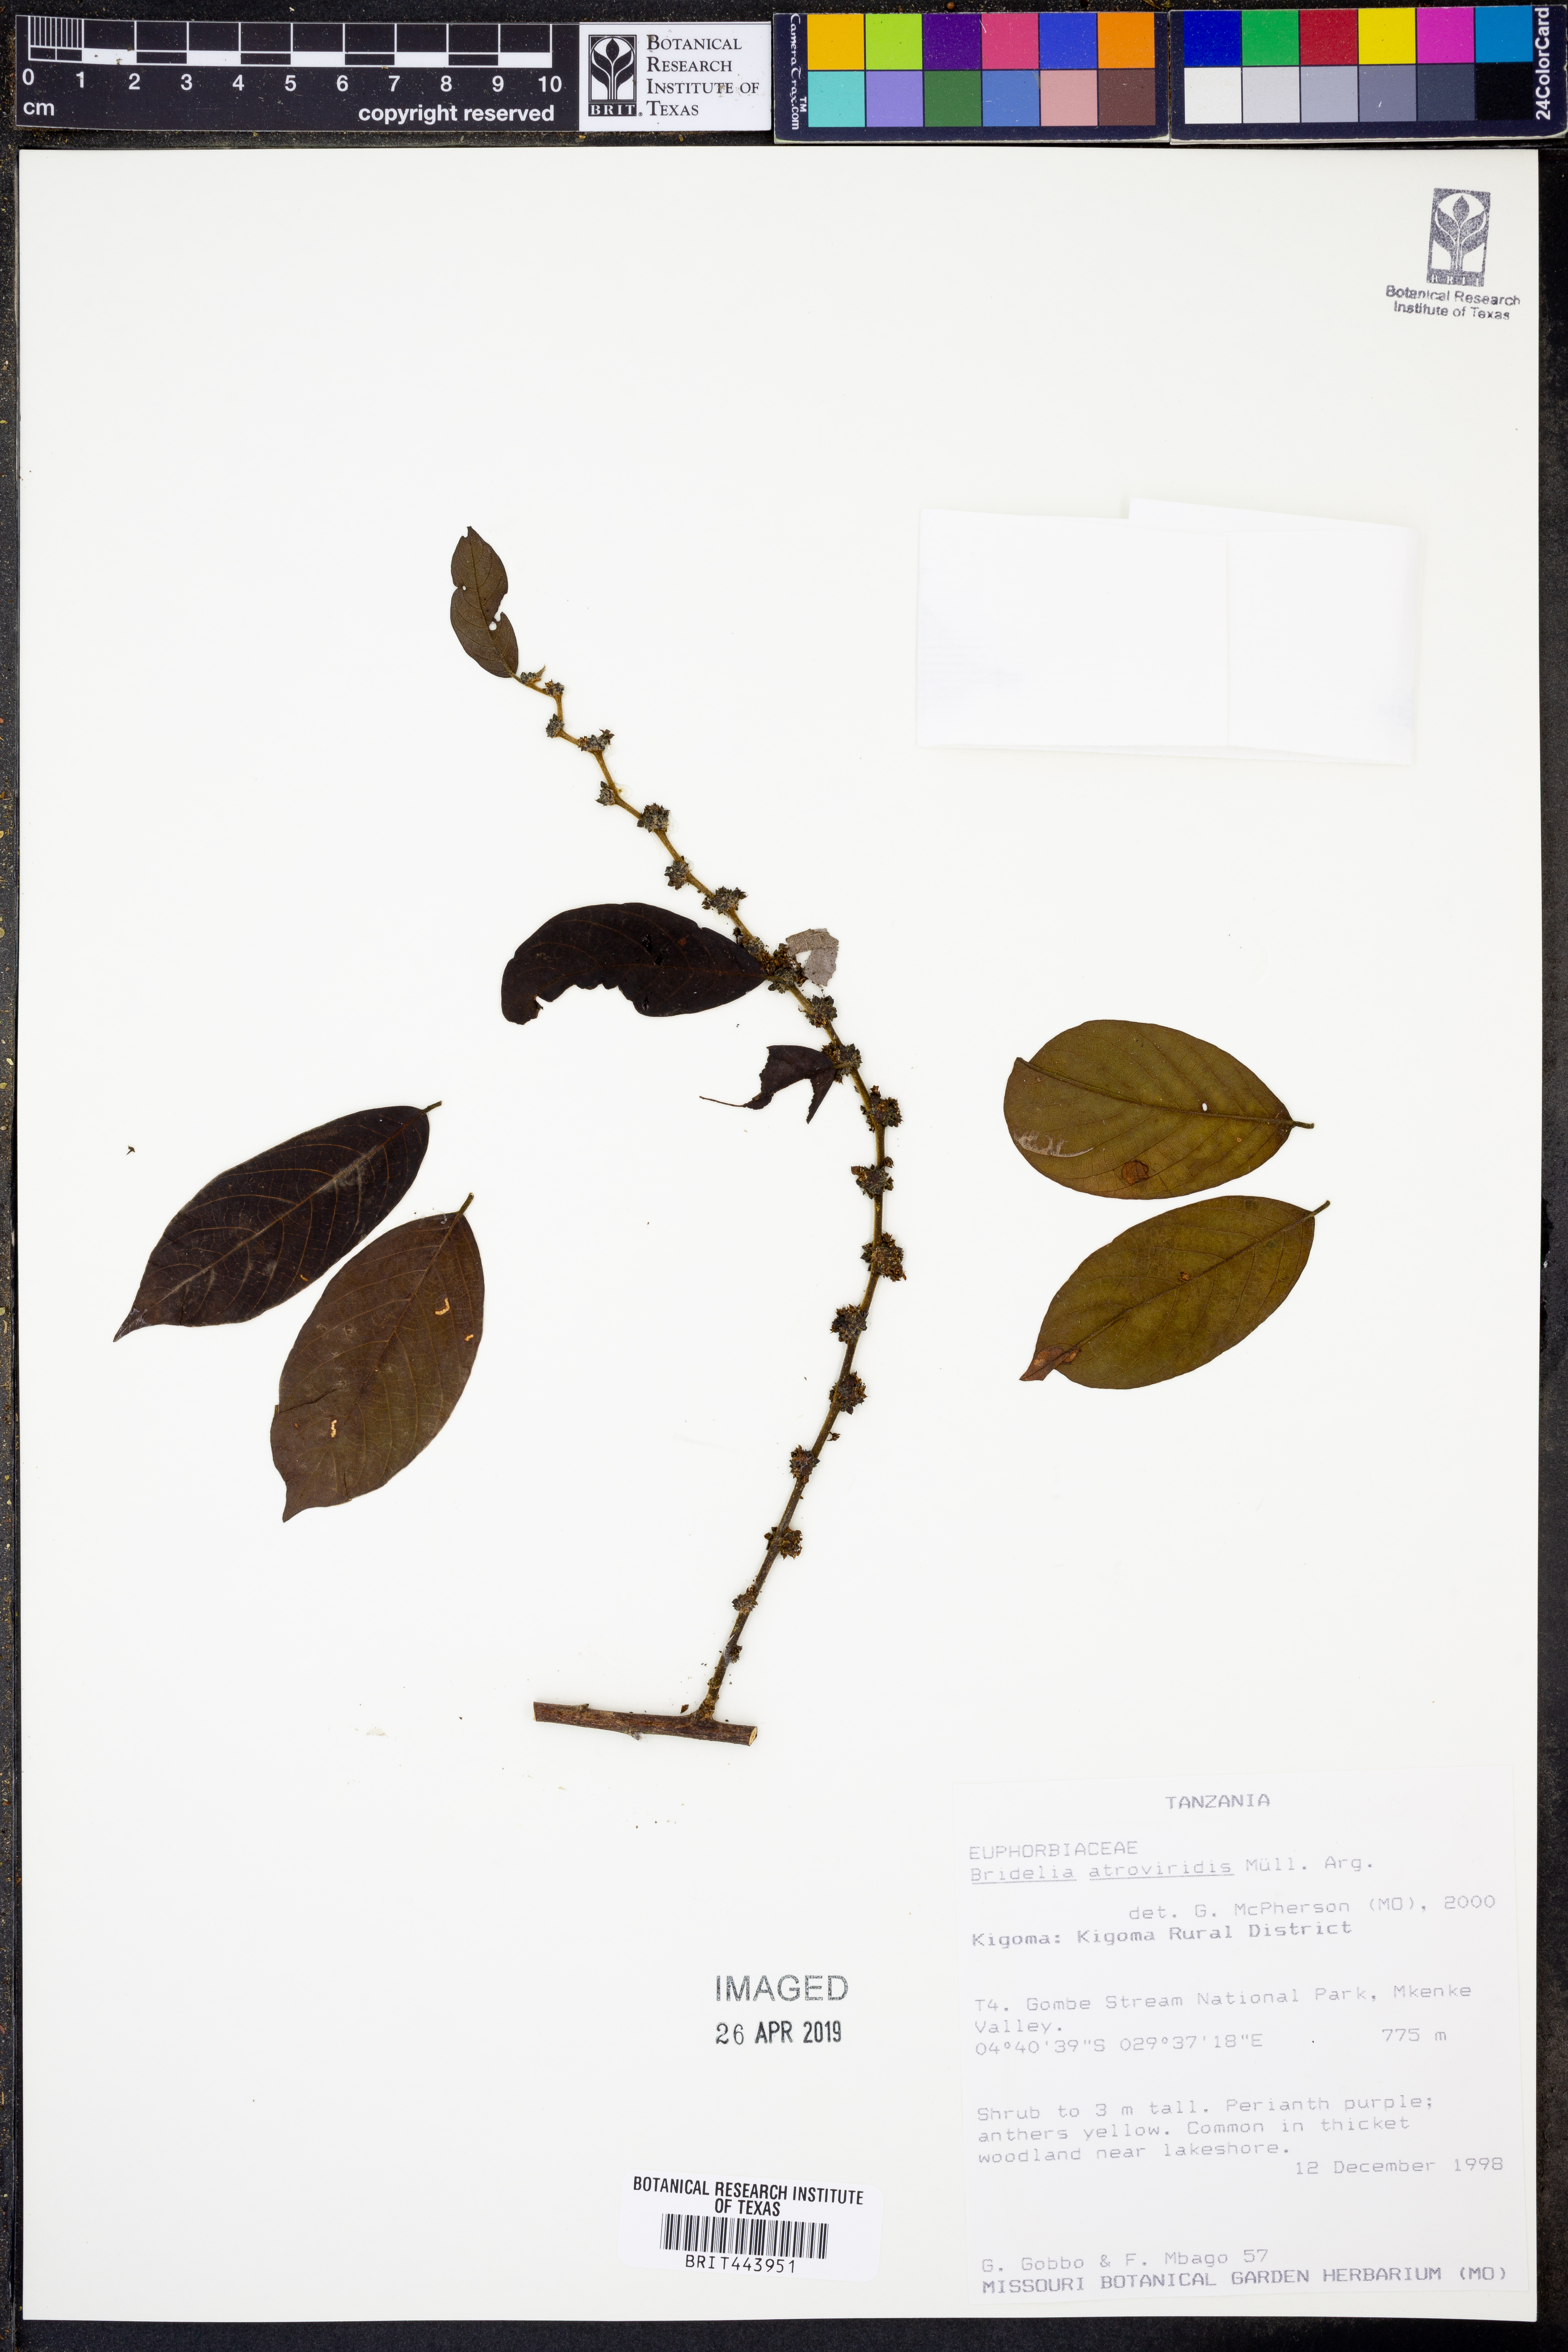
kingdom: Plantae
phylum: Tracheophyta
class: Magnoliopsida
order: Malpighiales
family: Phyllanthaceae
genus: Bridelia
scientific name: Bridelia atroviridis
